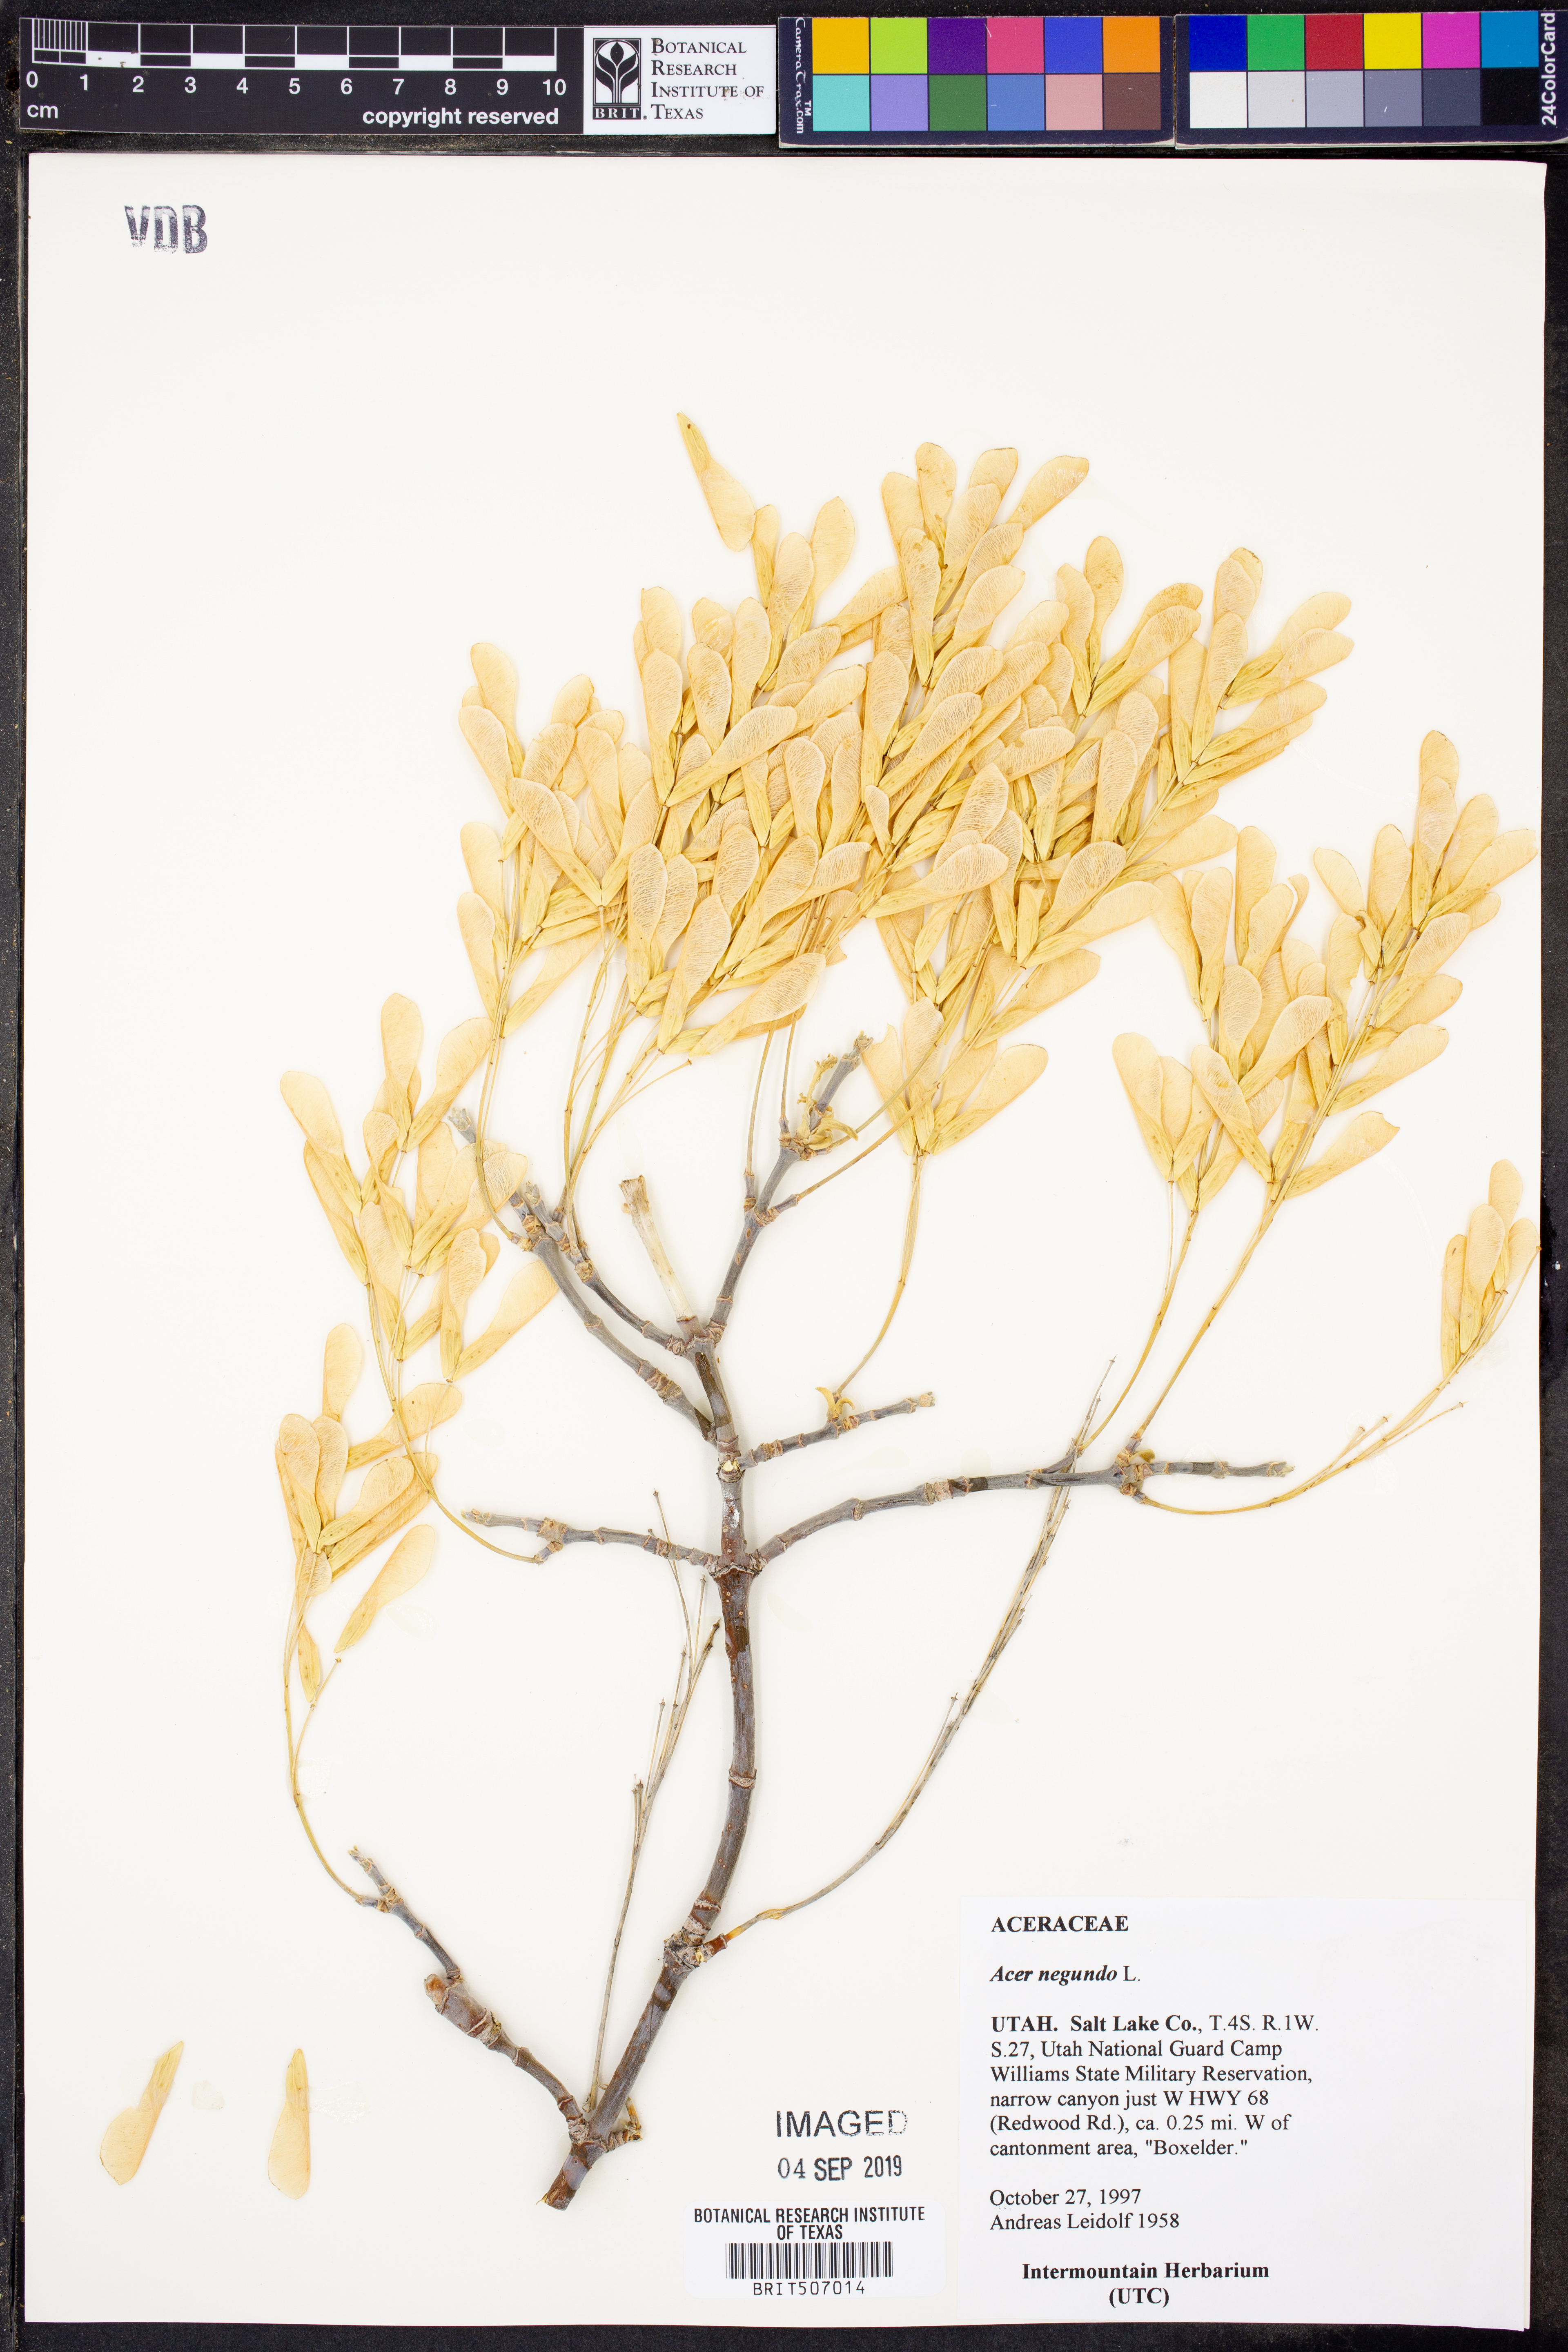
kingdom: Plantae
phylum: Tracheophyta
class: Magnoliopsida
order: Sapindales
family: Sapindaceae
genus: Acer
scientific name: Acer negundo
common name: Ashleaf maple
